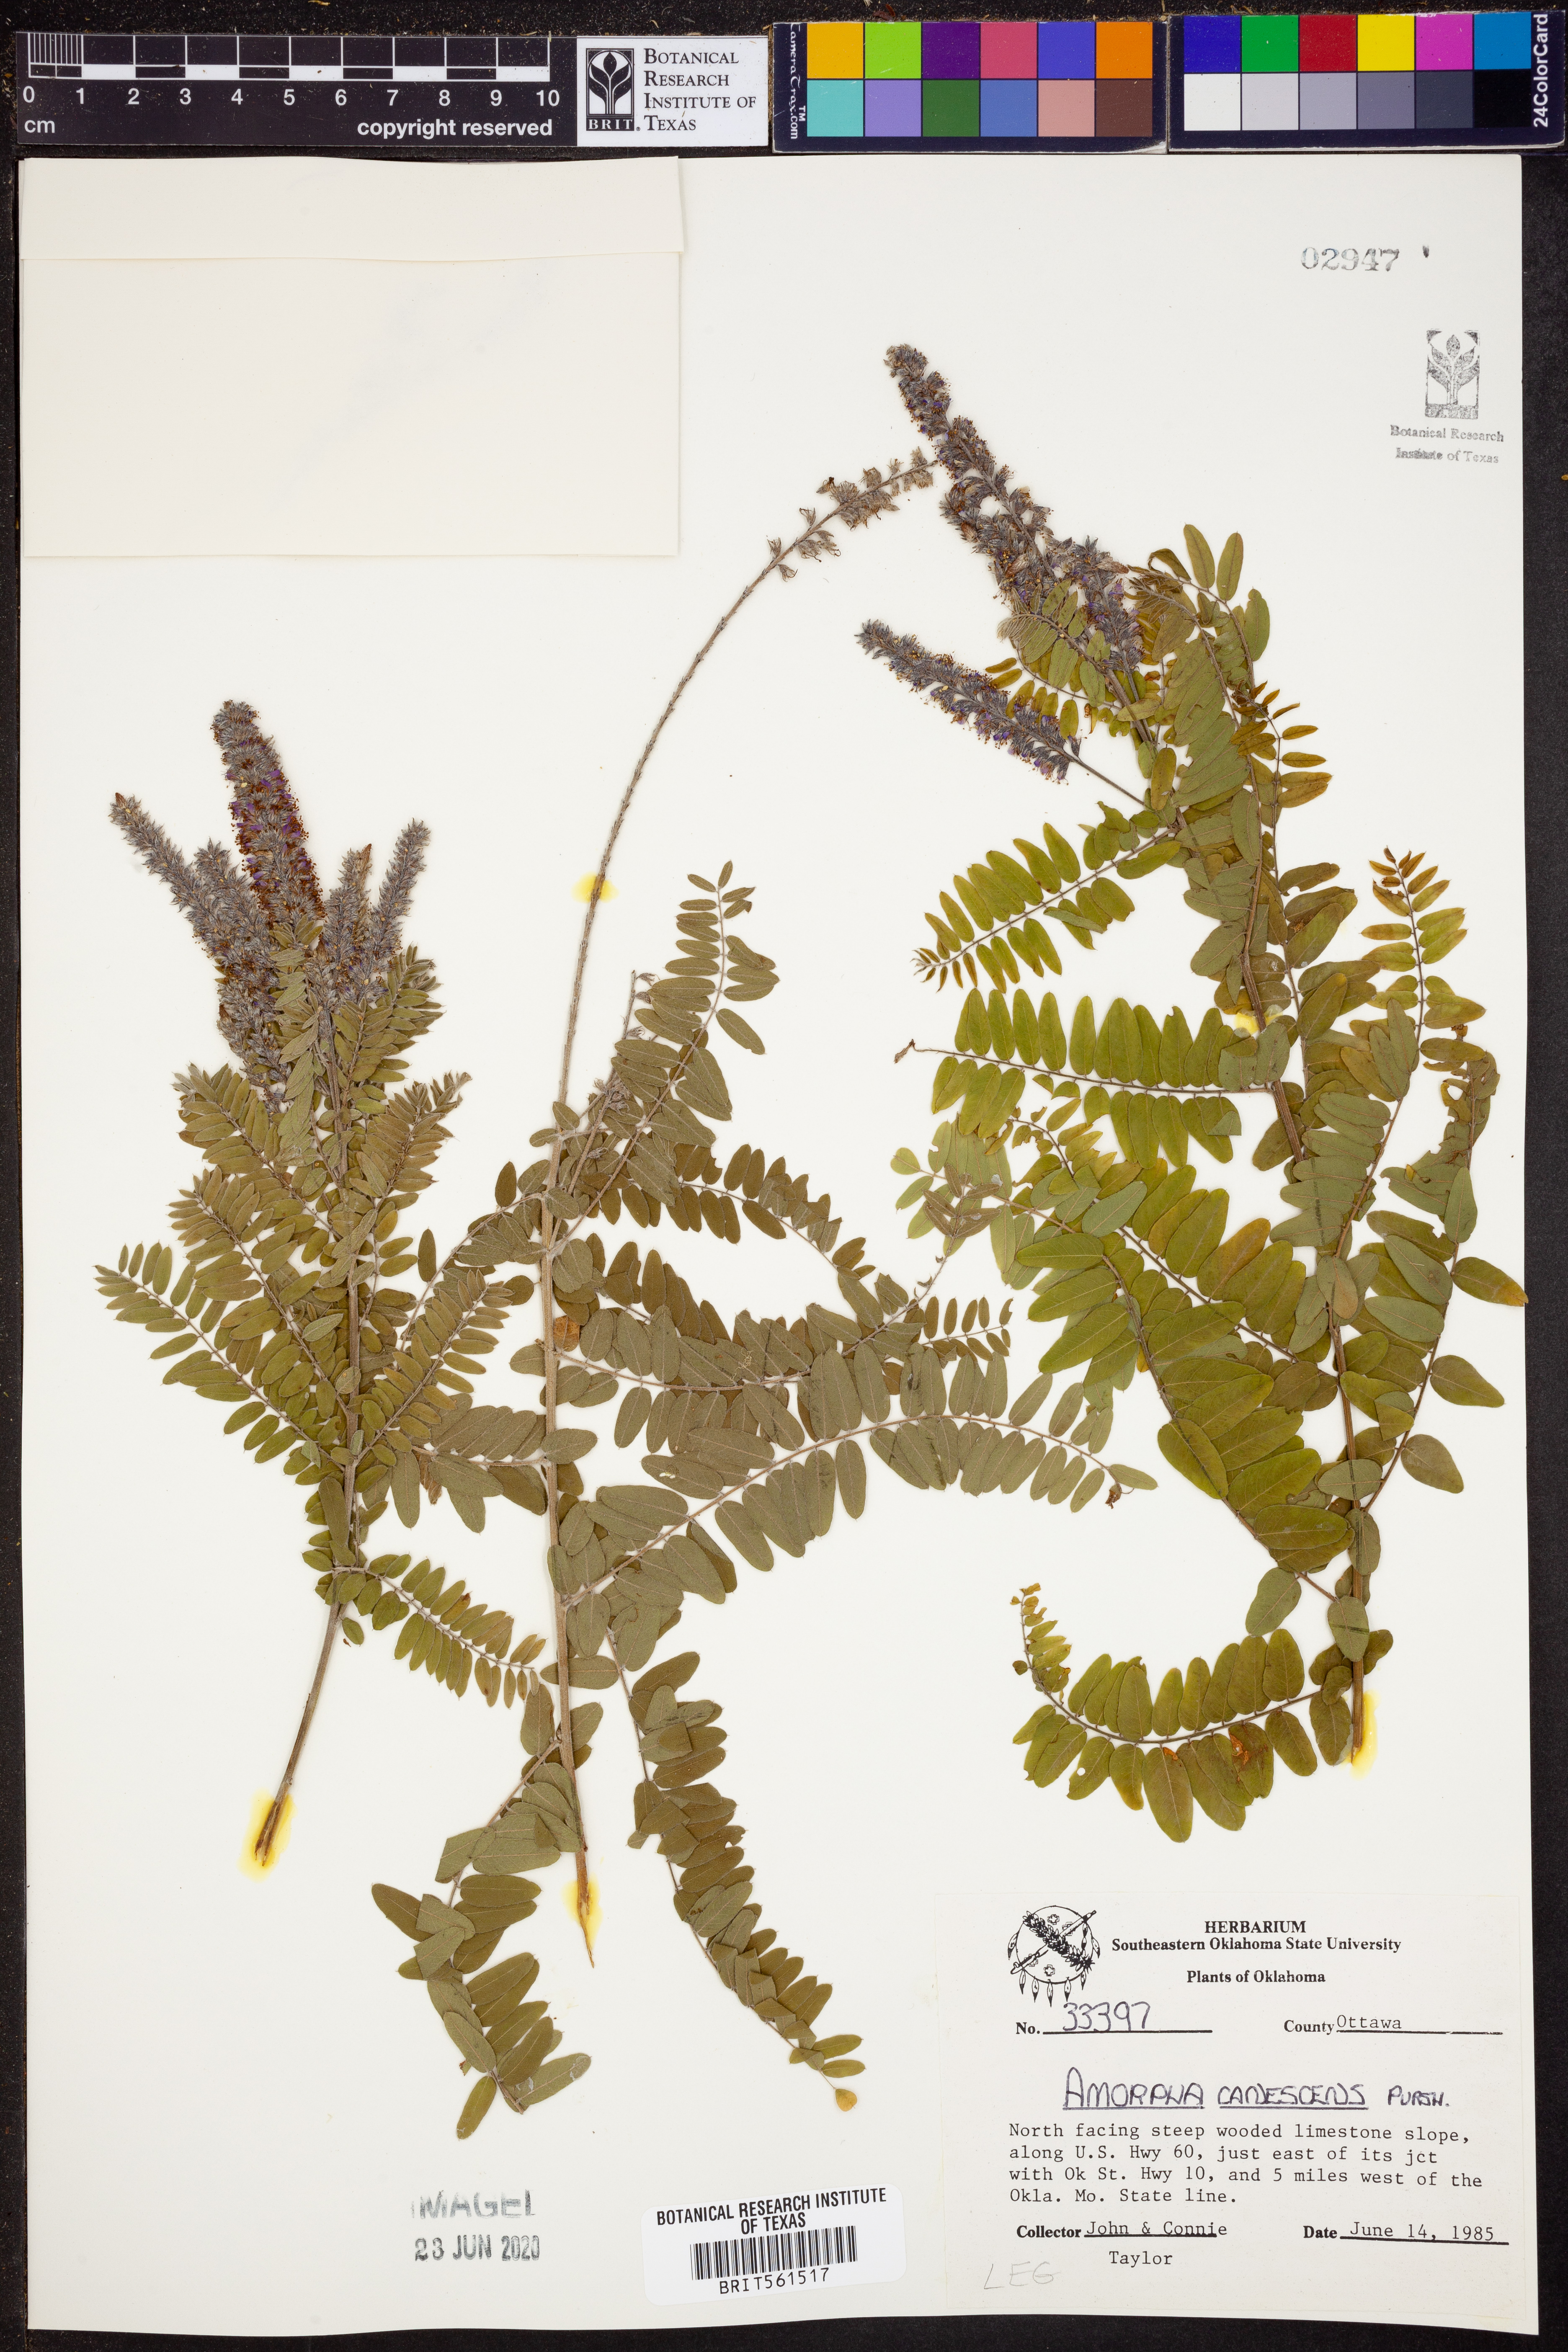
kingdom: Plantae
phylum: Tracheophyta
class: Magnoliopsida
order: Fabales
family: Fabaceae
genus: Amorpha
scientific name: Amorpha canescens
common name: Leadplant
